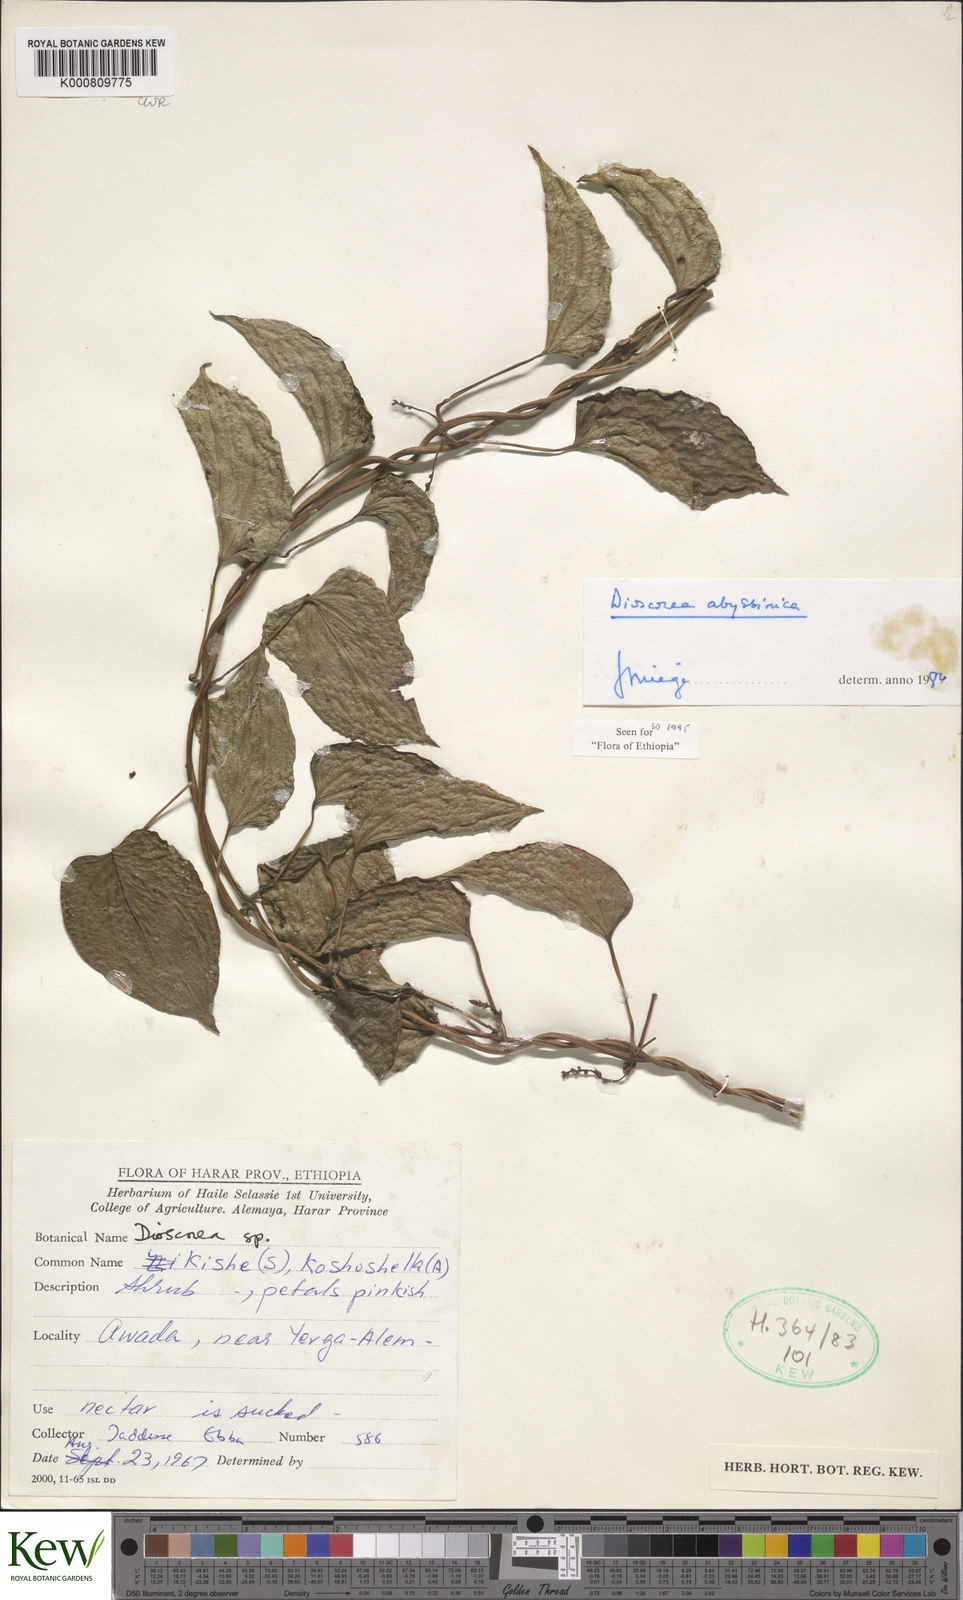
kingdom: Plantae
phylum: Tracheophyta
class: Liliopsida
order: Dioscoreales
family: Dioscoreaceae
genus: Dioscorea
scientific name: Dioscorea abyssinica
